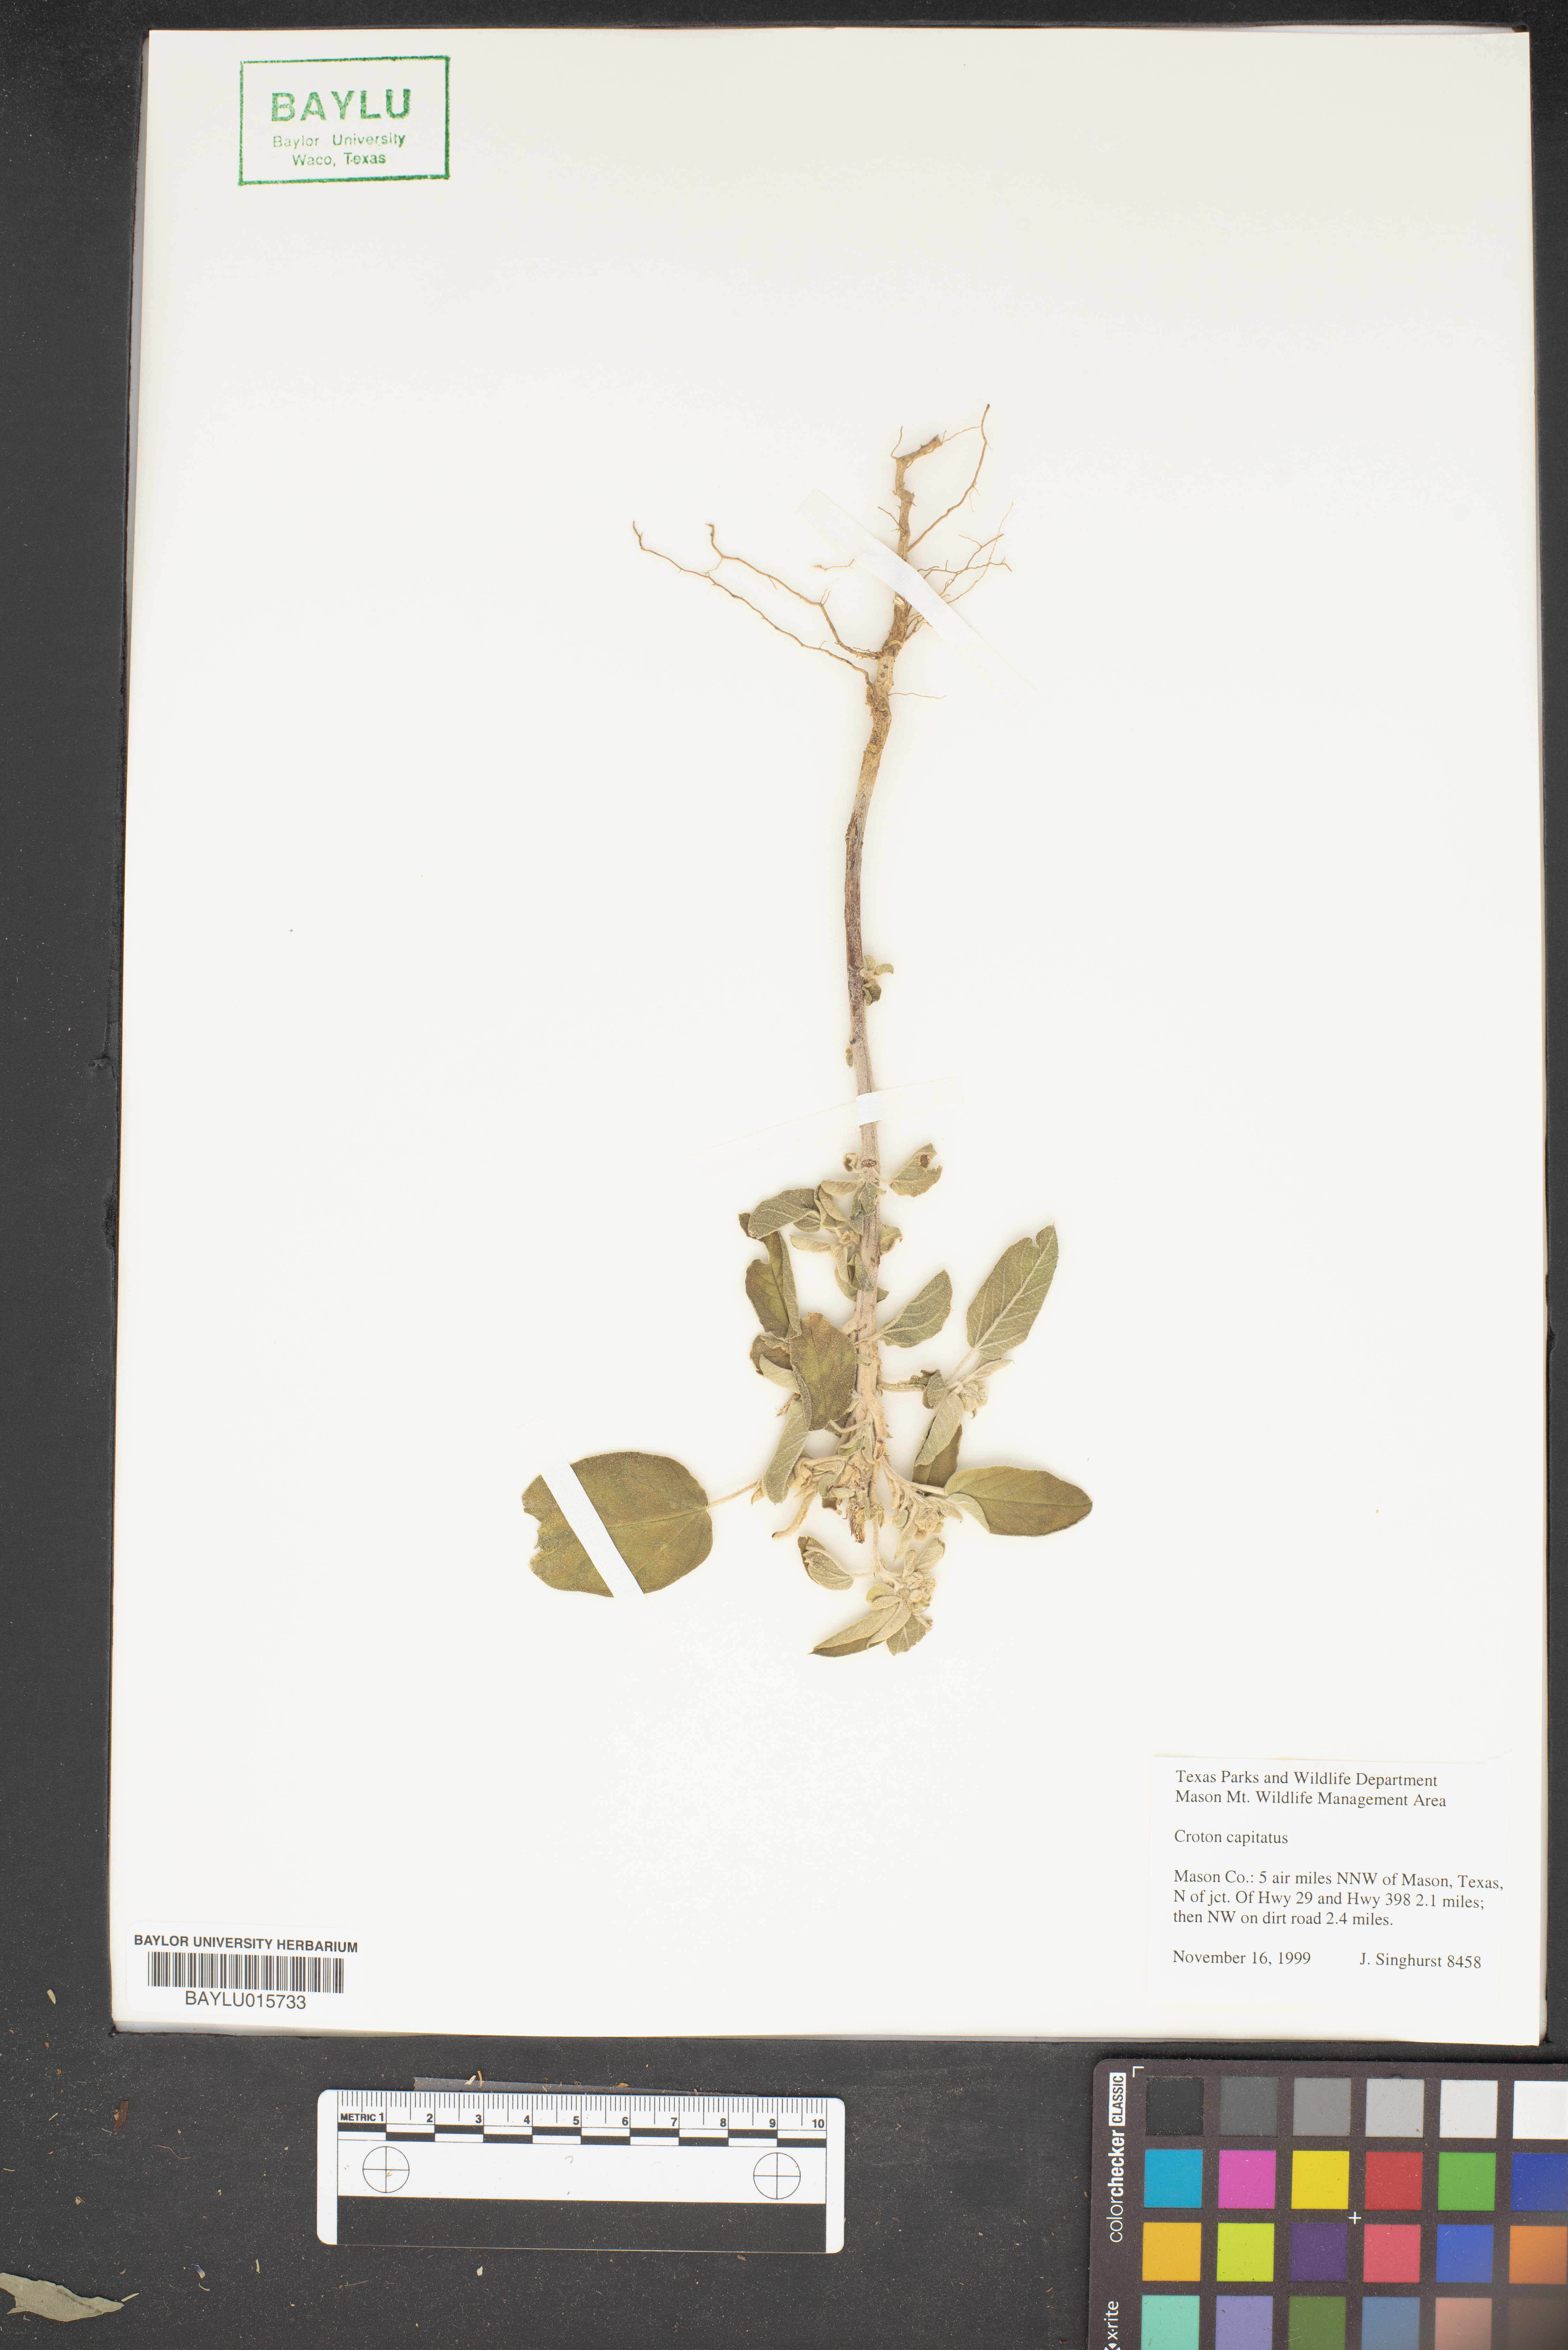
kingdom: Plantae
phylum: Tracheophyta
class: Magnoliopsida
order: Malpighiales
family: Euphorbiaceae
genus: Croton
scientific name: Croton capitatus
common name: Woolly croton
